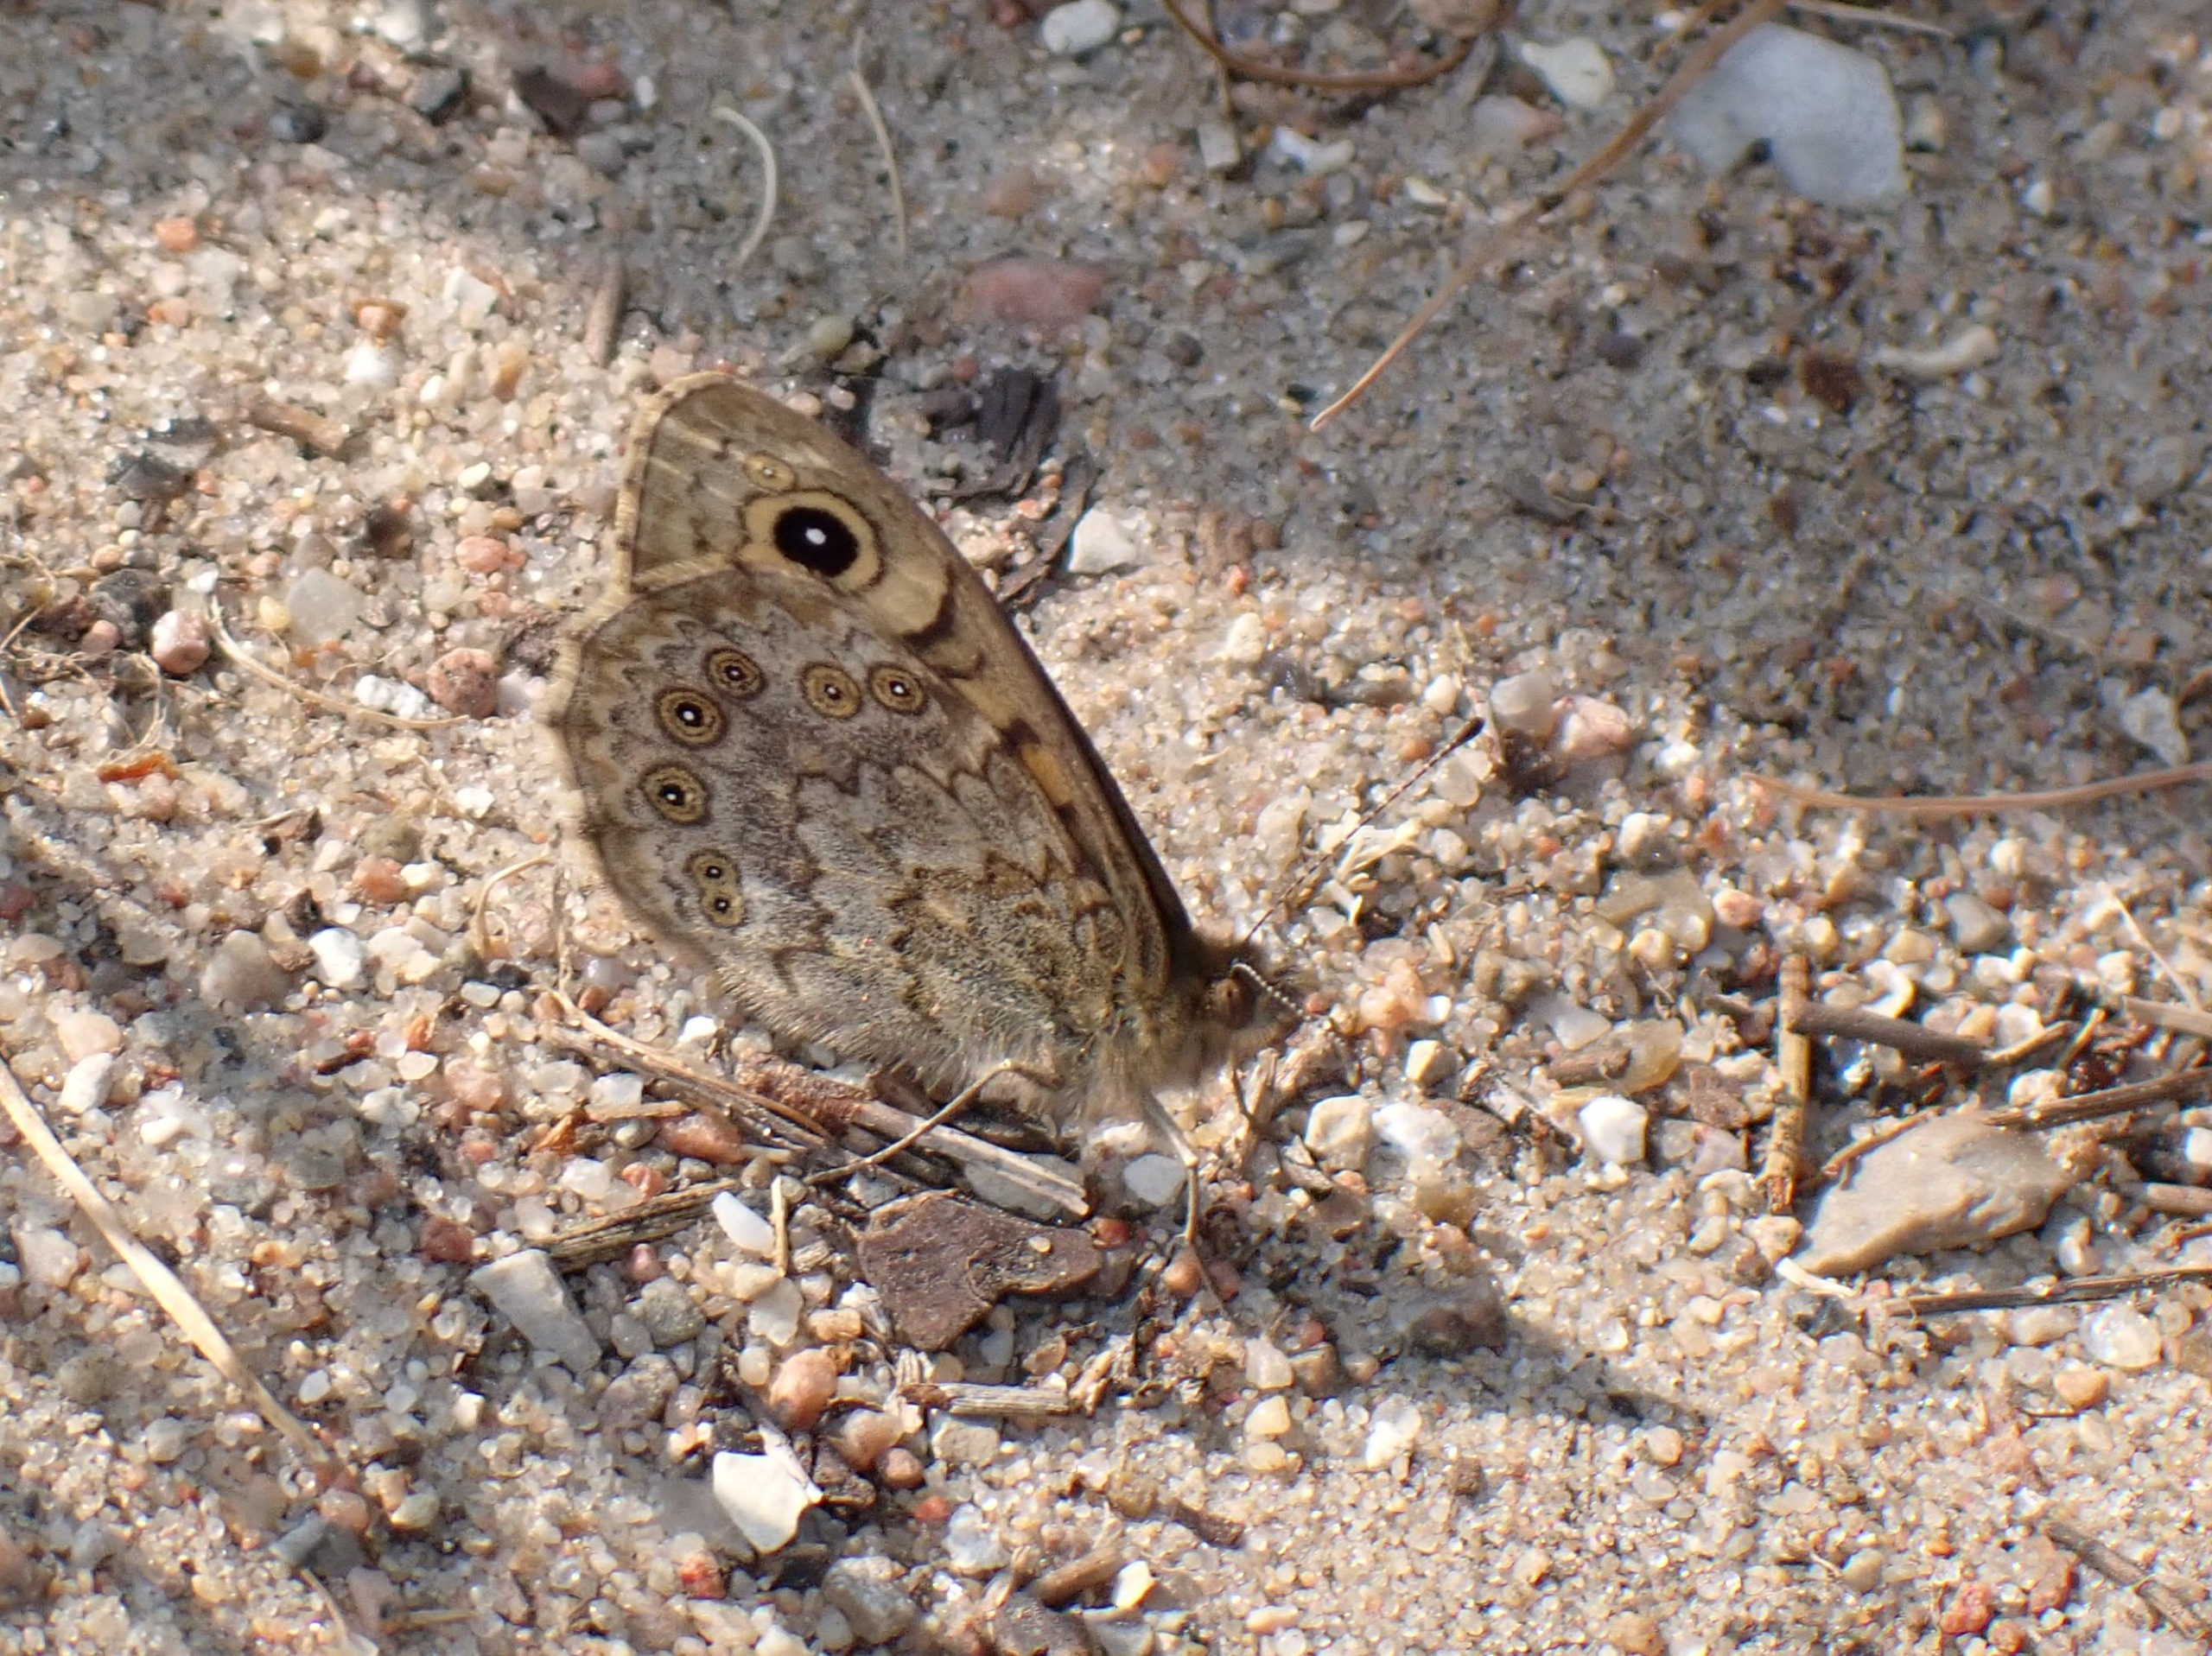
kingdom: Animalia
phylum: Arthropoda
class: Insecta
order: Lepidoptera
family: Nymphalidae
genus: Pararge
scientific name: Pararge Lasiommata megera
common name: Vejrandøje
